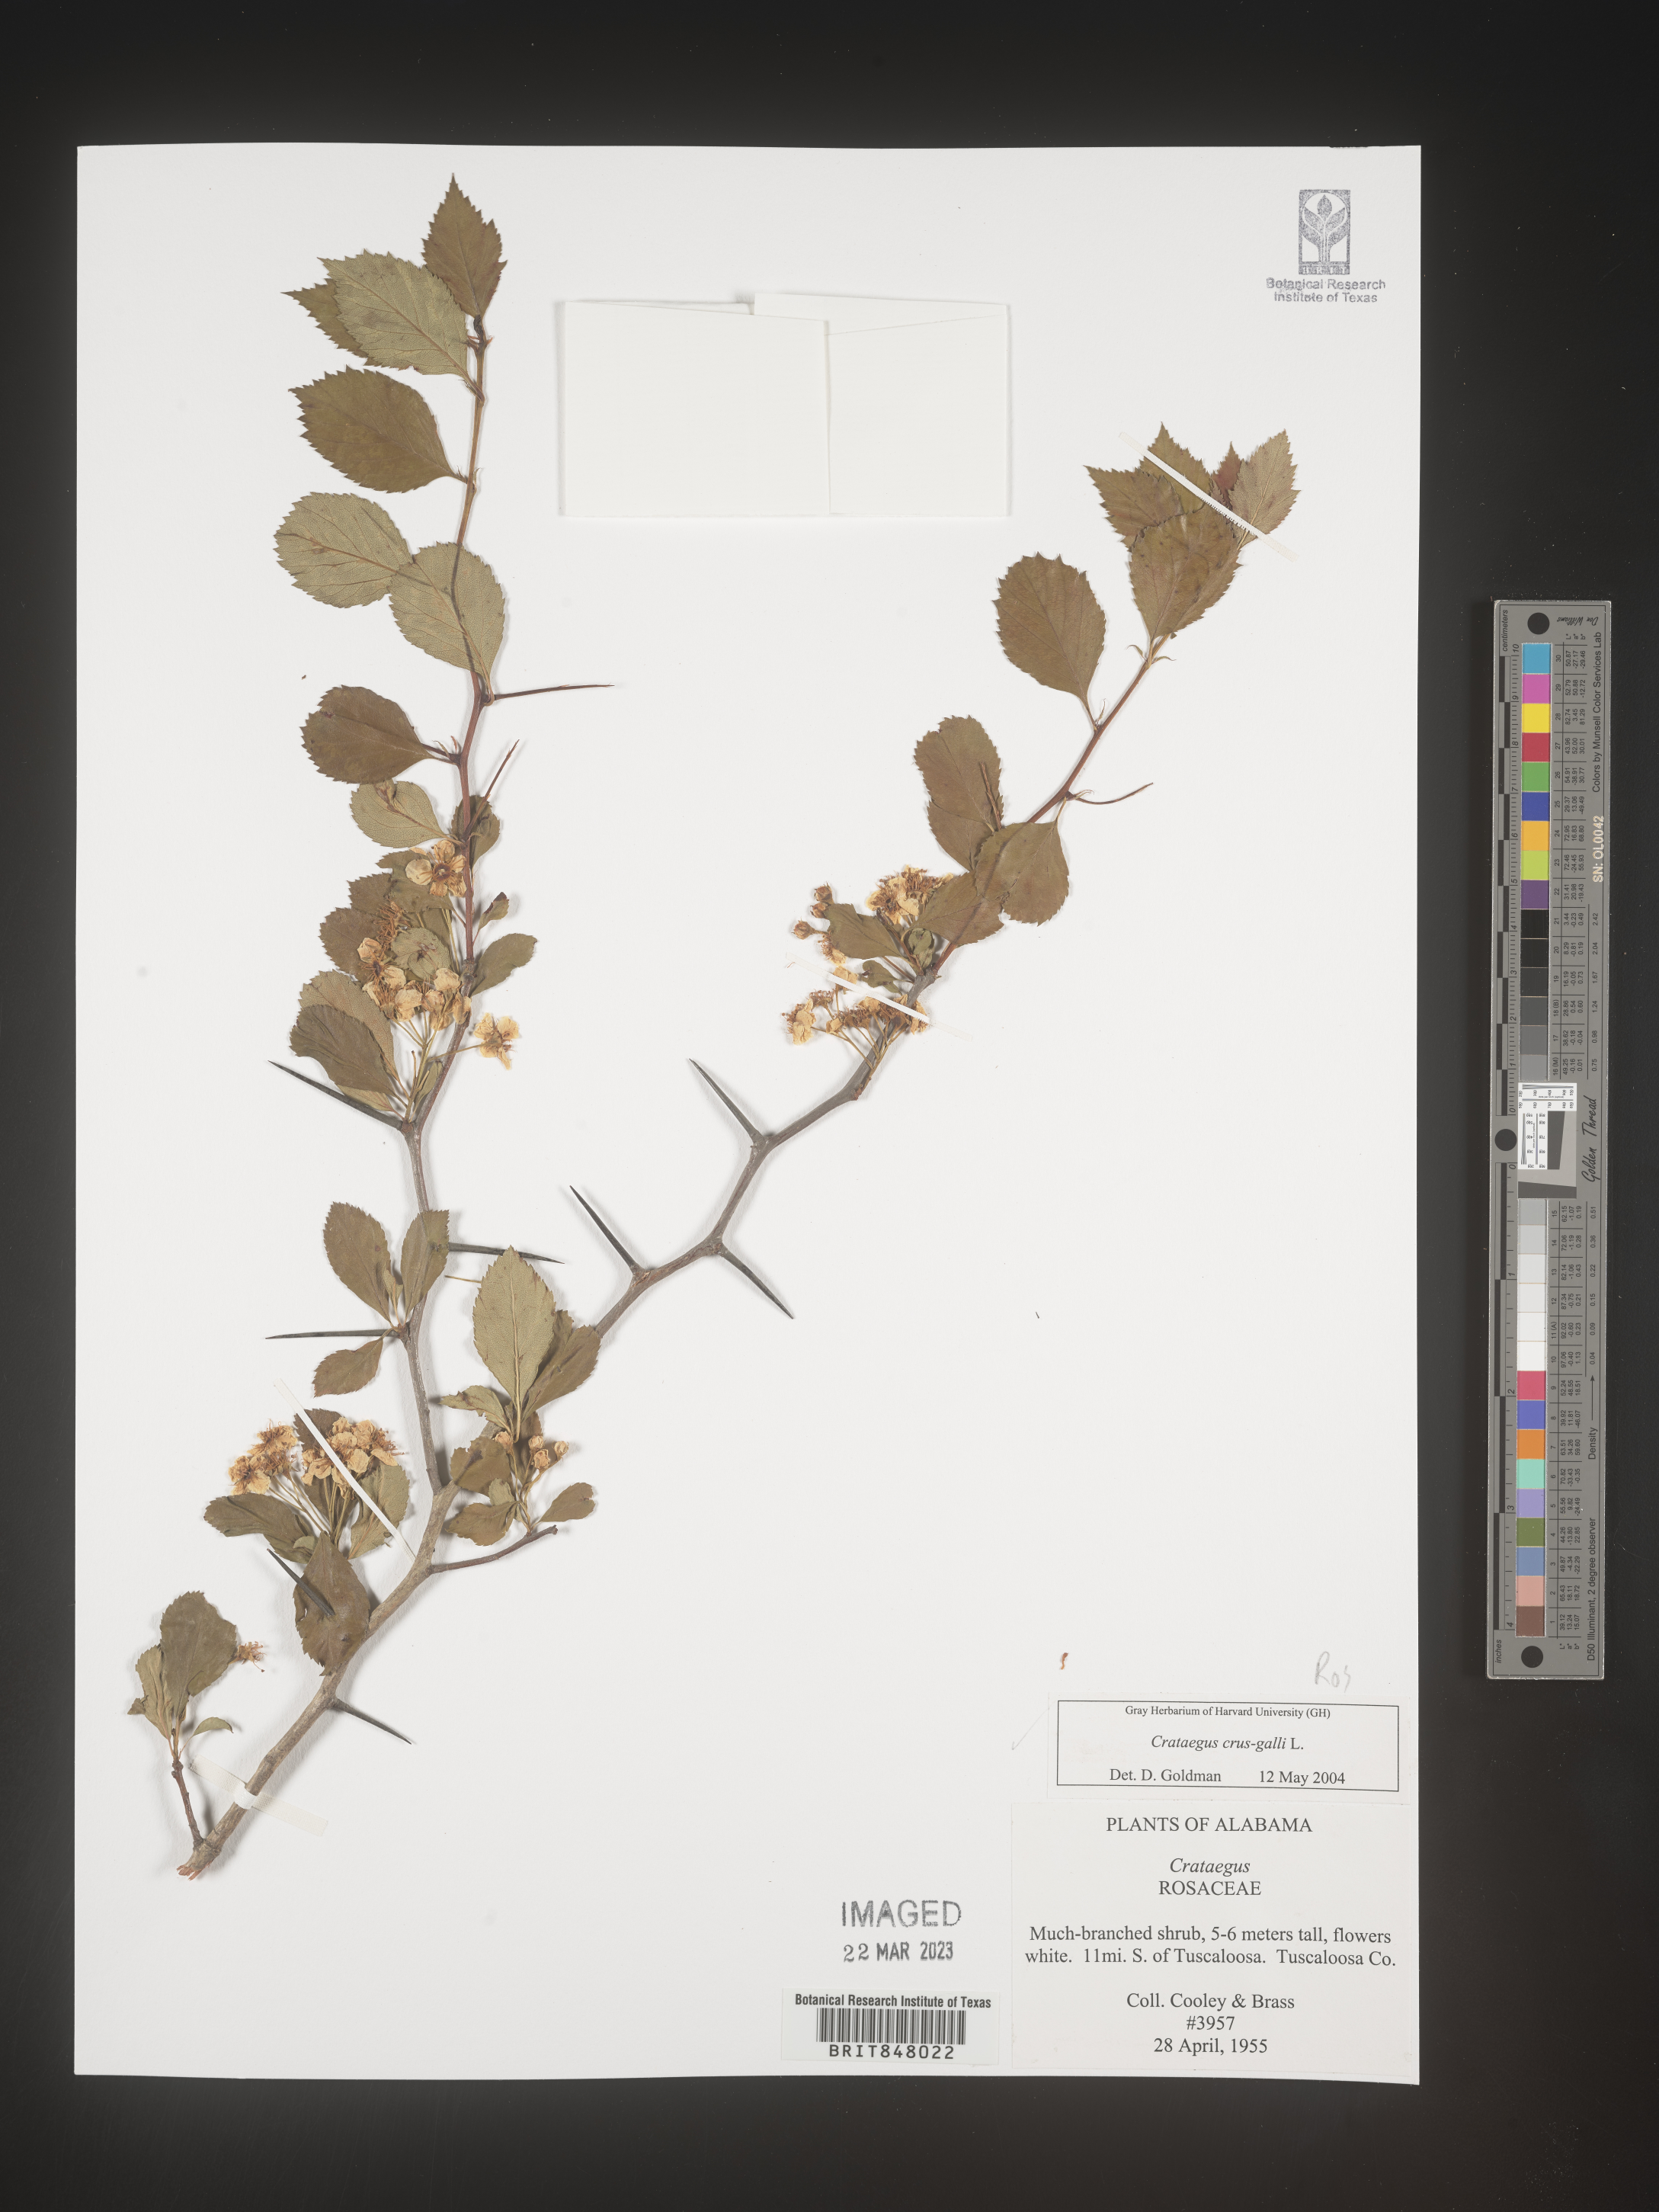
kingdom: Plantae
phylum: Tracheophyta
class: Magnoliopsida
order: Rosales
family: Rosaceae
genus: Crataegus
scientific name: Crataegus crus-galli
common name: Cockspurthorn
